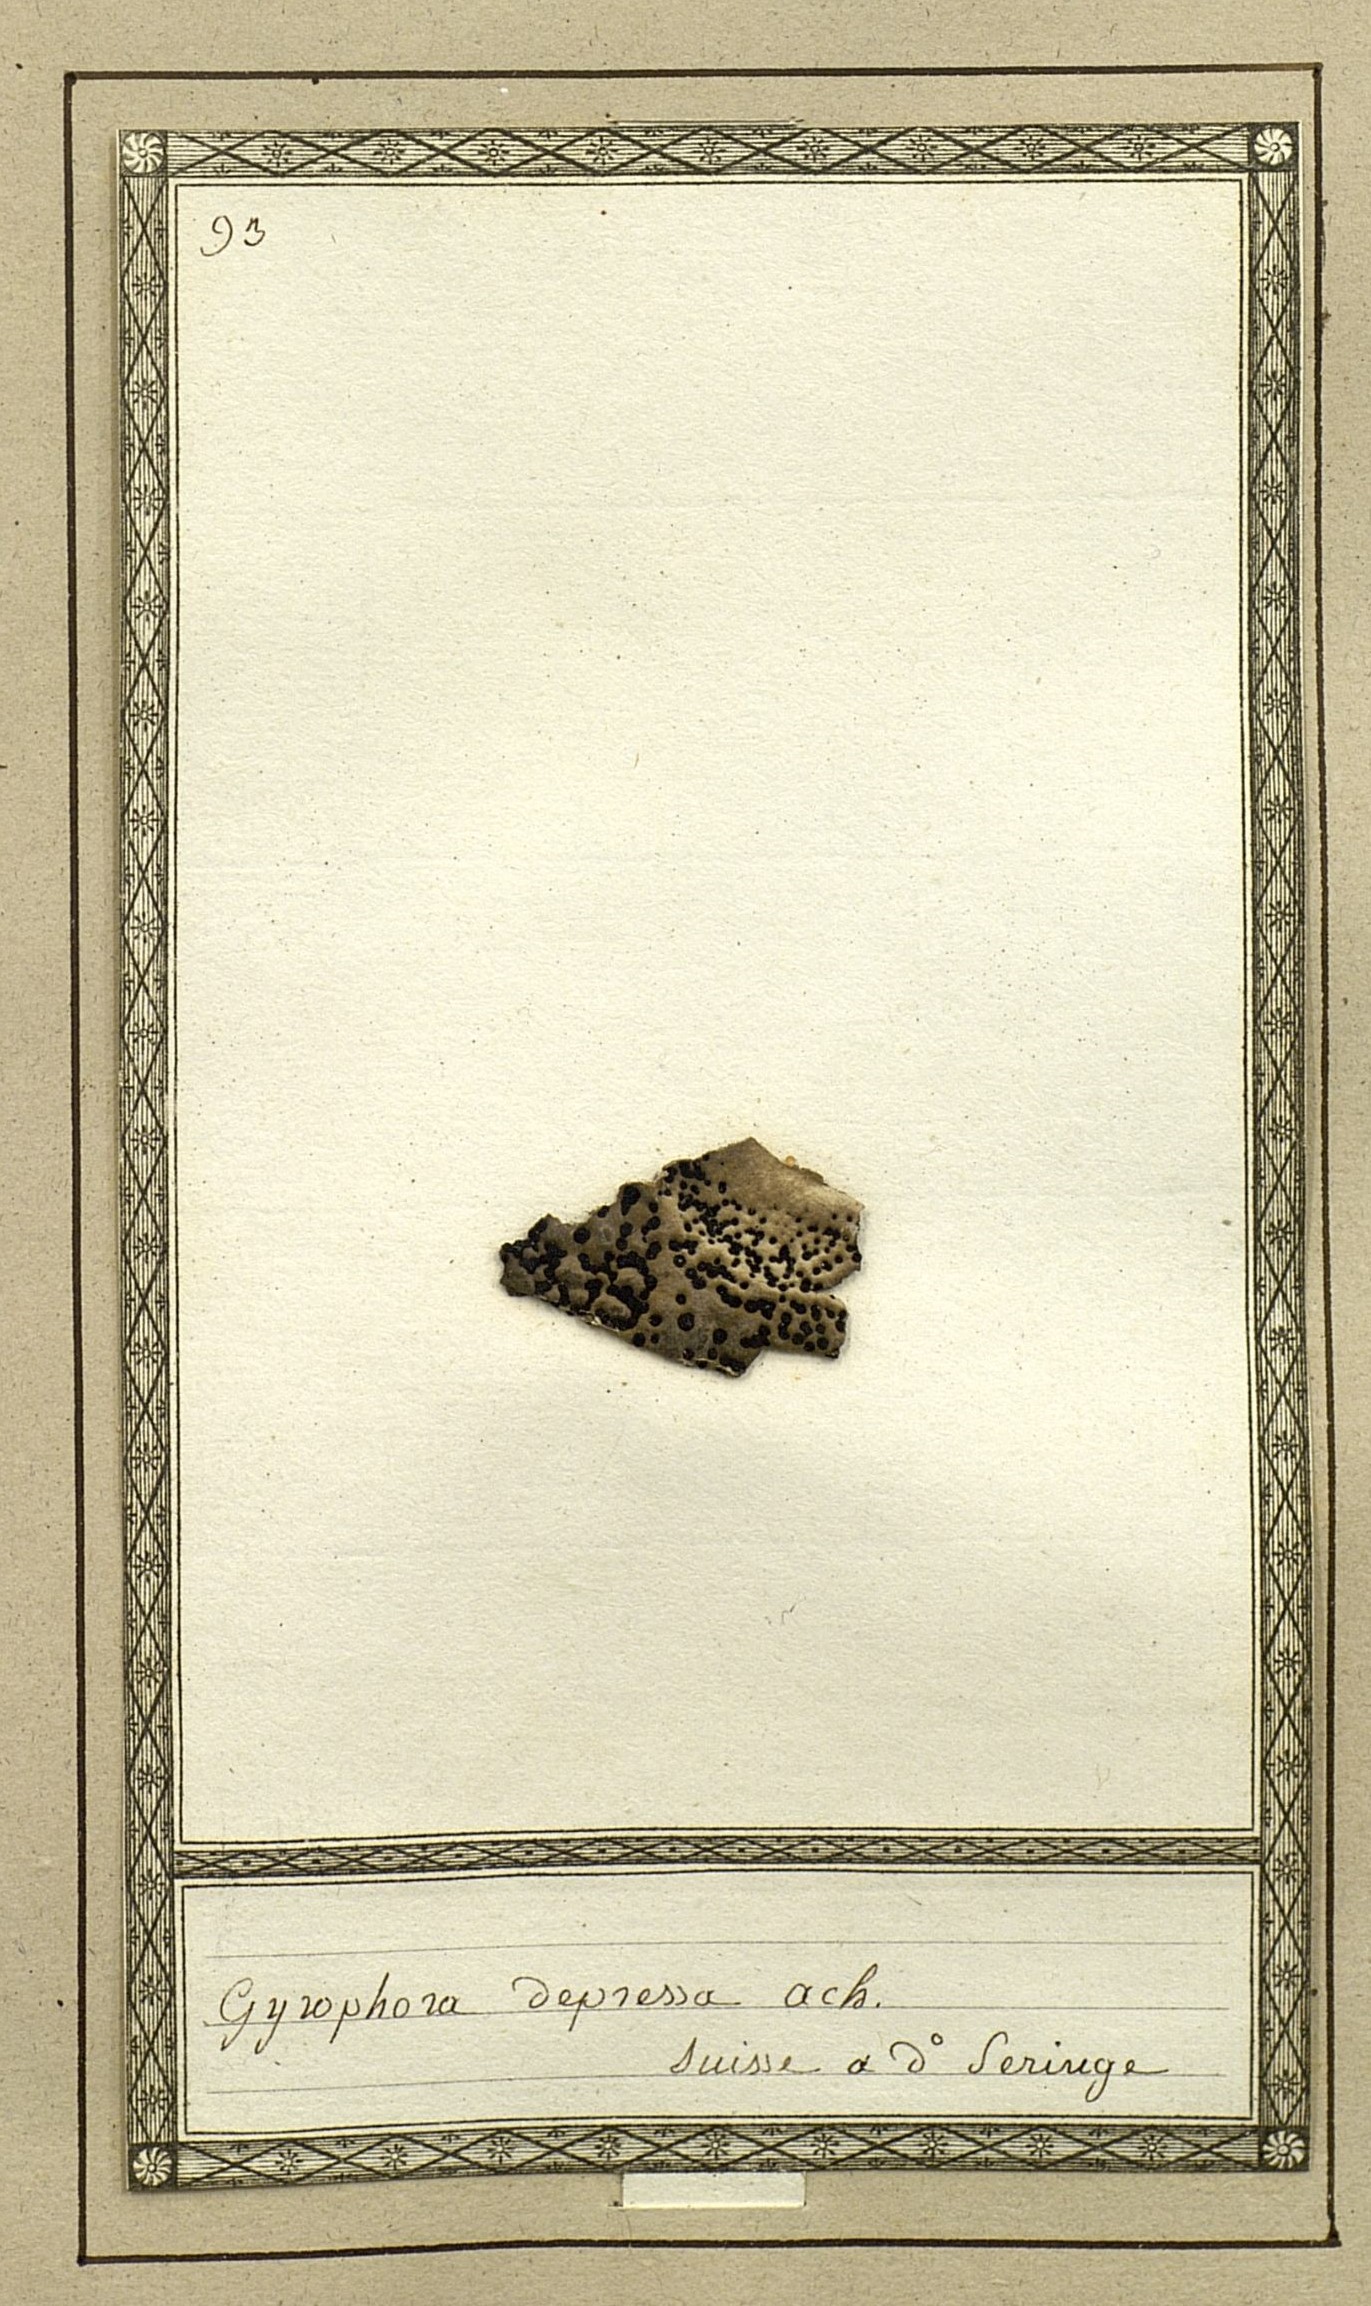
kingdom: Fungi
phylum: Ascomycota
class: Lecanoromycetes
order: Umbilicariales
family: Umbilicariaceae
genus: Umbilicaria
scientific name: Umbilicaria crustulosa
